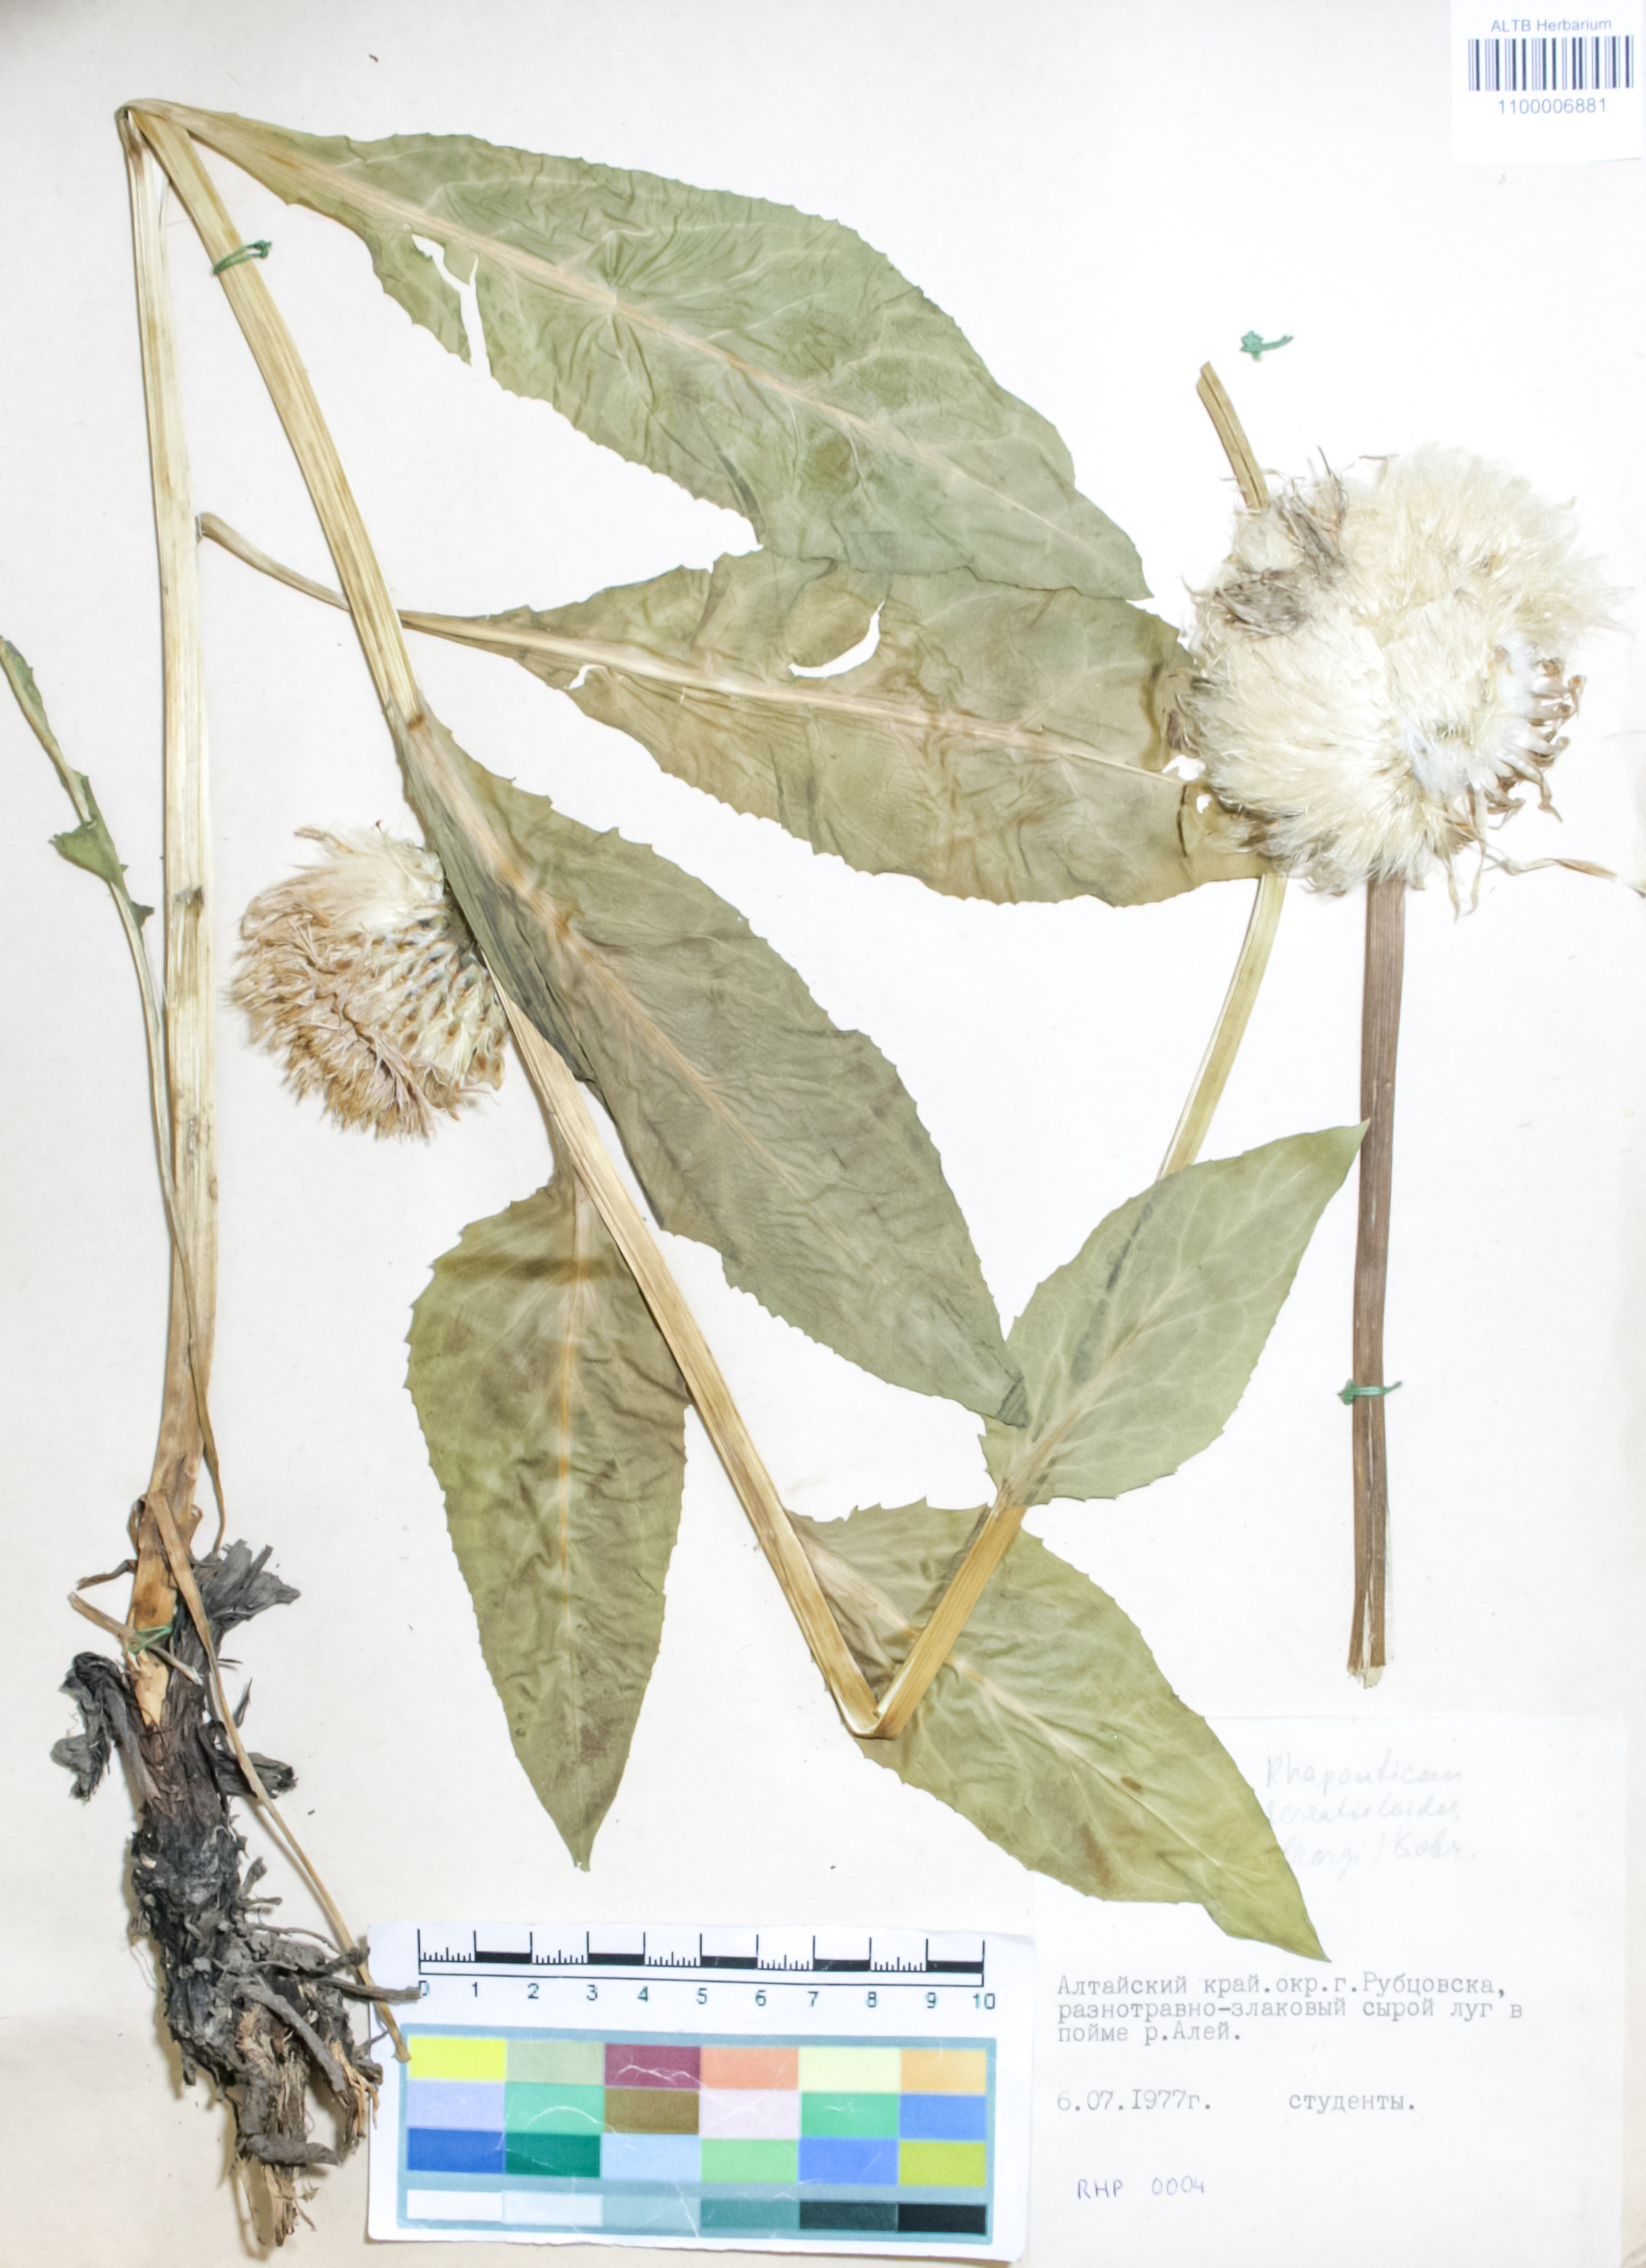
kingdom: Plantae
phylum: Tracheophyta
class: Magnoliopsida
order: Asterales
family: Asteraceae
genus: Leuzea
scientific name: Leuzea altaica
